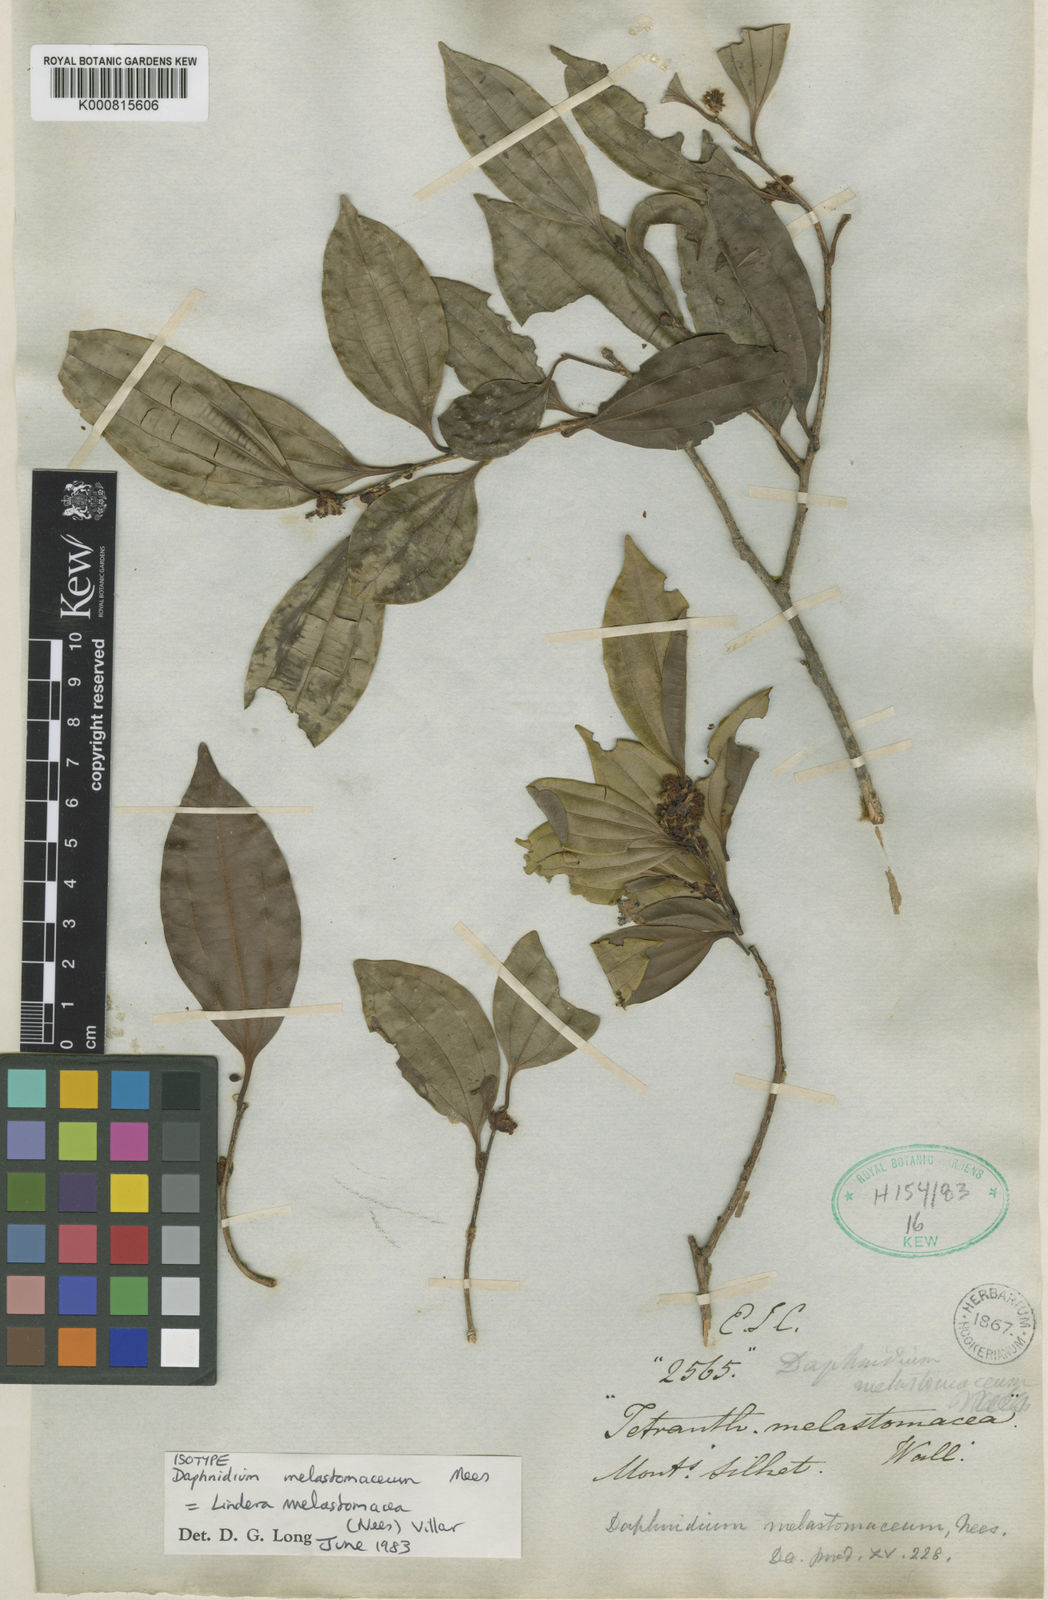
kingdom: Plantae
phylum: Tracheophyta
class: Magnoliopsida
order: Laurales
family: Lauraceae
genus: Lindera
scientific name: Lindera melastomacea
